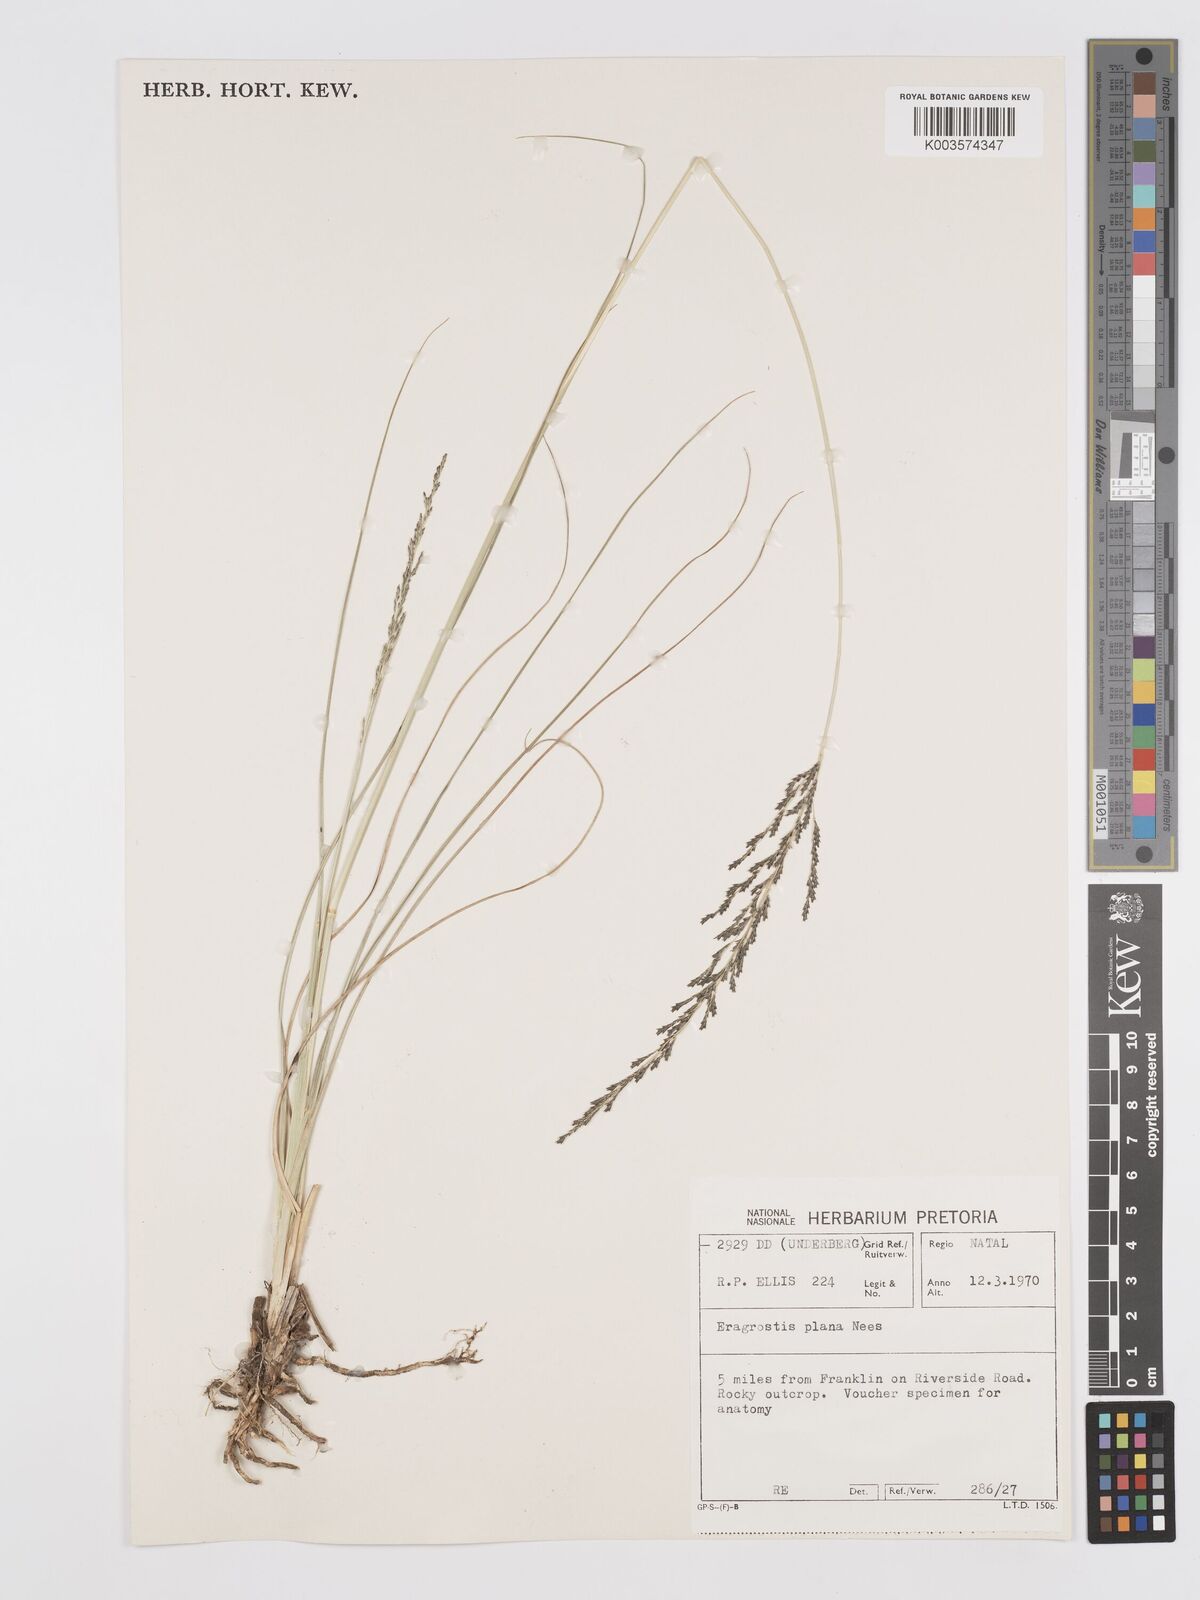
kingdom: Plantae
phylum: Tracheophyta
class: Liliopsida
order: Poales
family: Poaceae
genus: Eragrostis
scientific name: Eragrostis plana
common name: South african lovegrass
